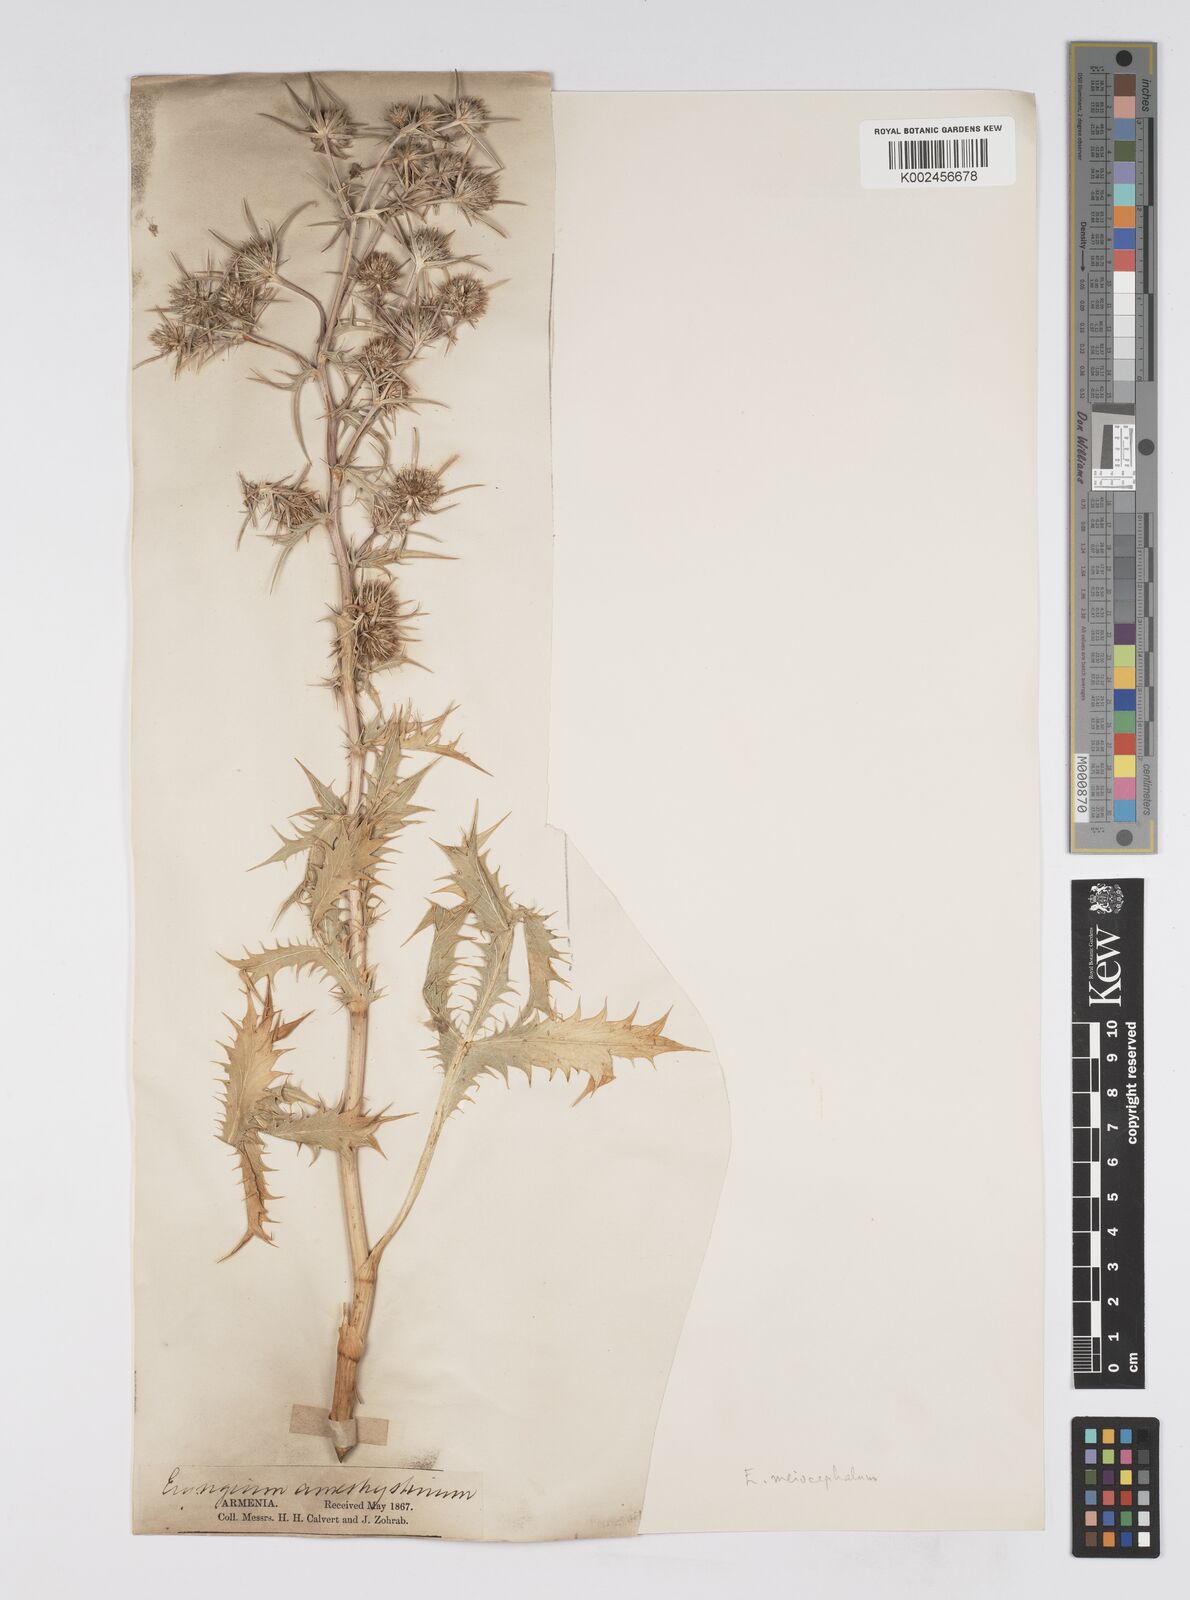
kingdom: Plantae
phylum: Tracheophyta
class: Magnoliopsida
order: Apiales
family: Apiaceae
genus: Eryngium
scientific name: Eryngium billardierei
